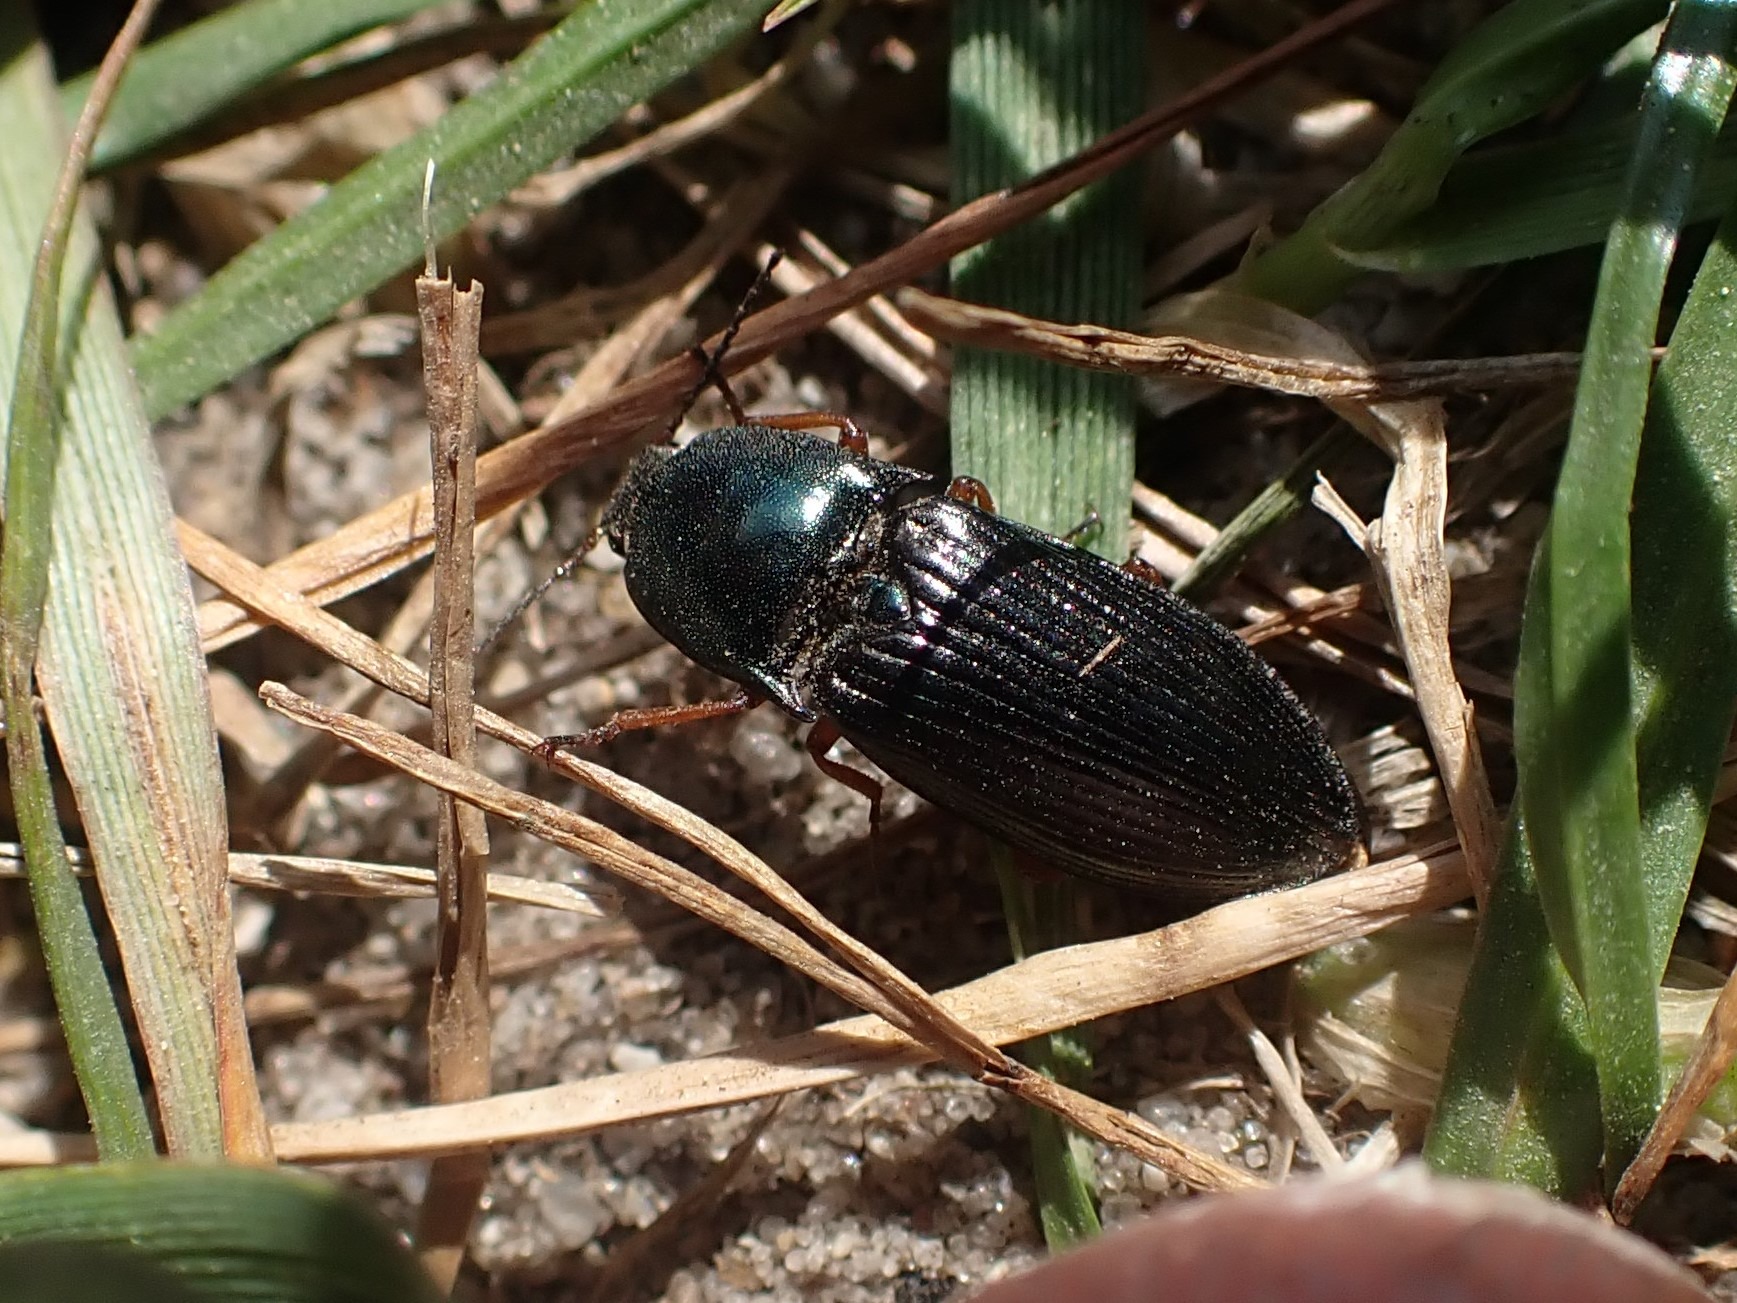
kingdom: Animalia
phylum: Arthropoda
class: Insecta
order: Coleoptera
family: Elateridae
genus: Selatosomus
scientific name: Selatosomus aeneus
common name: Kobbersmælder
